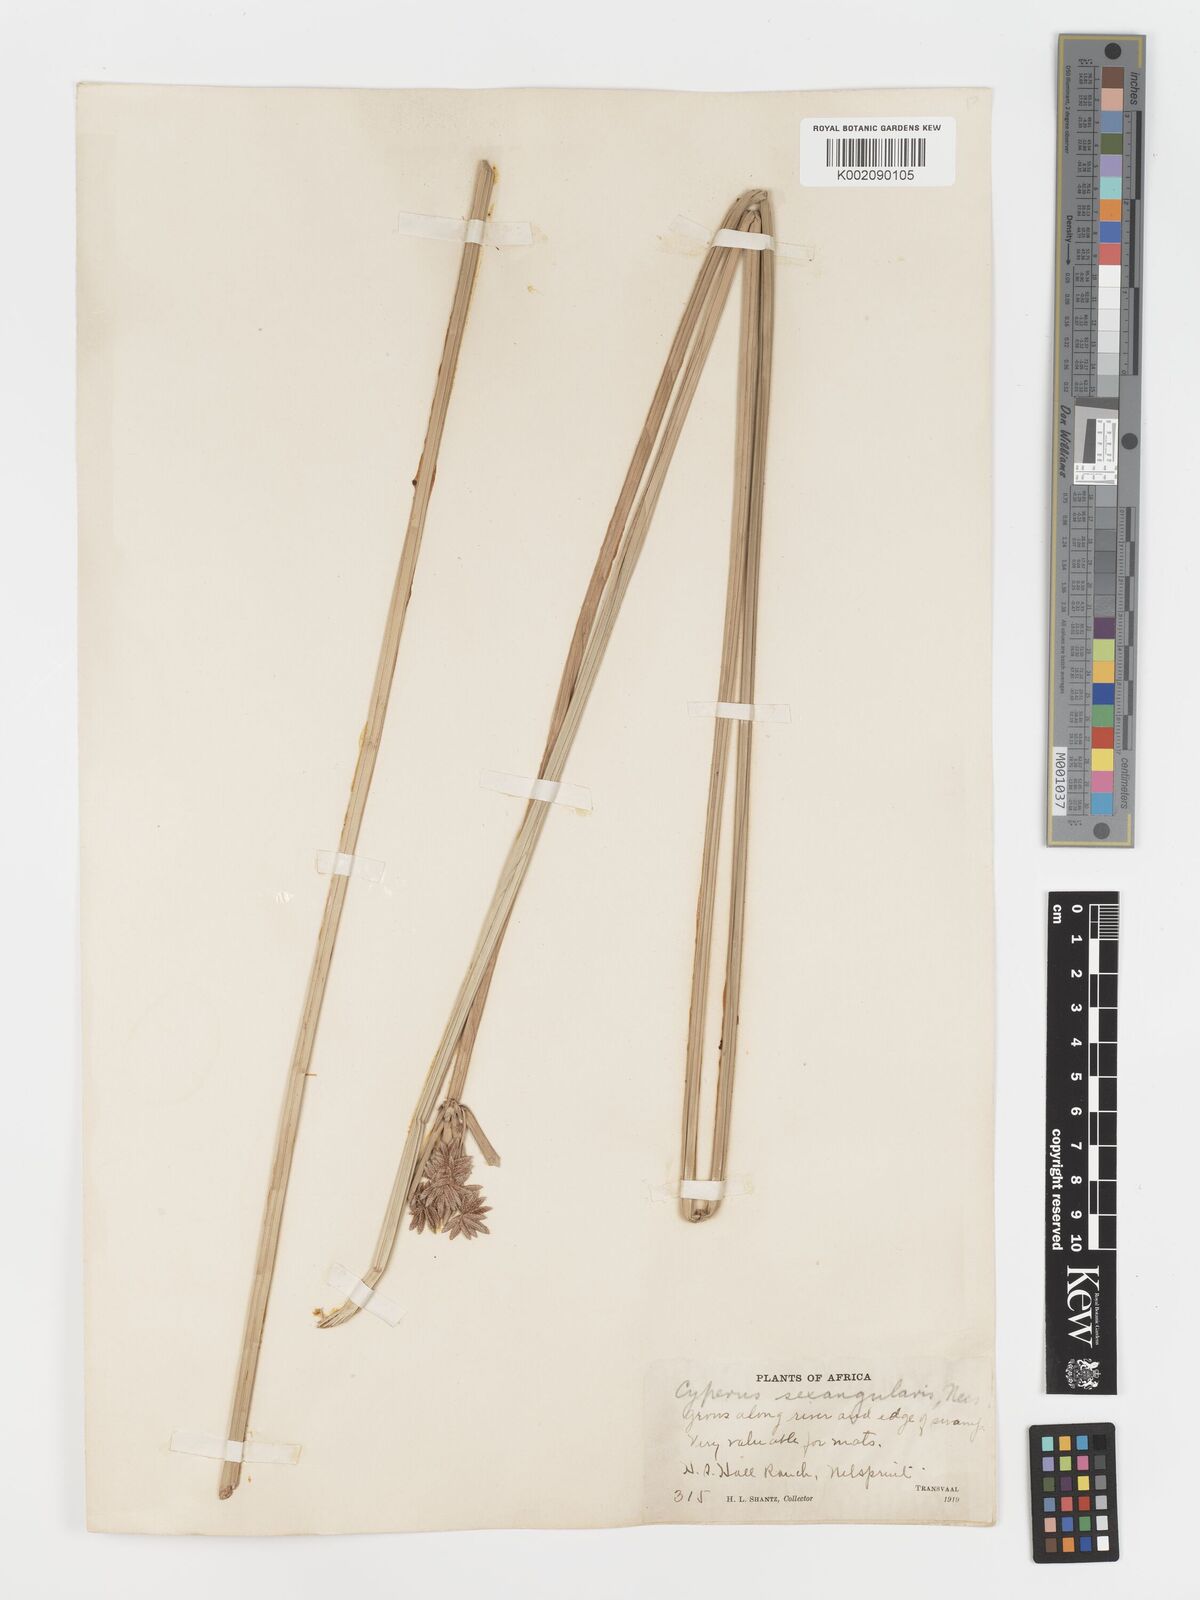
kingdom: Plantae
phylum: Tracheophyta
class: Liliopsida
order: Poales
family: Cyperaceae
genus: Cyperus
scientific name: Cyperus sexangularis
